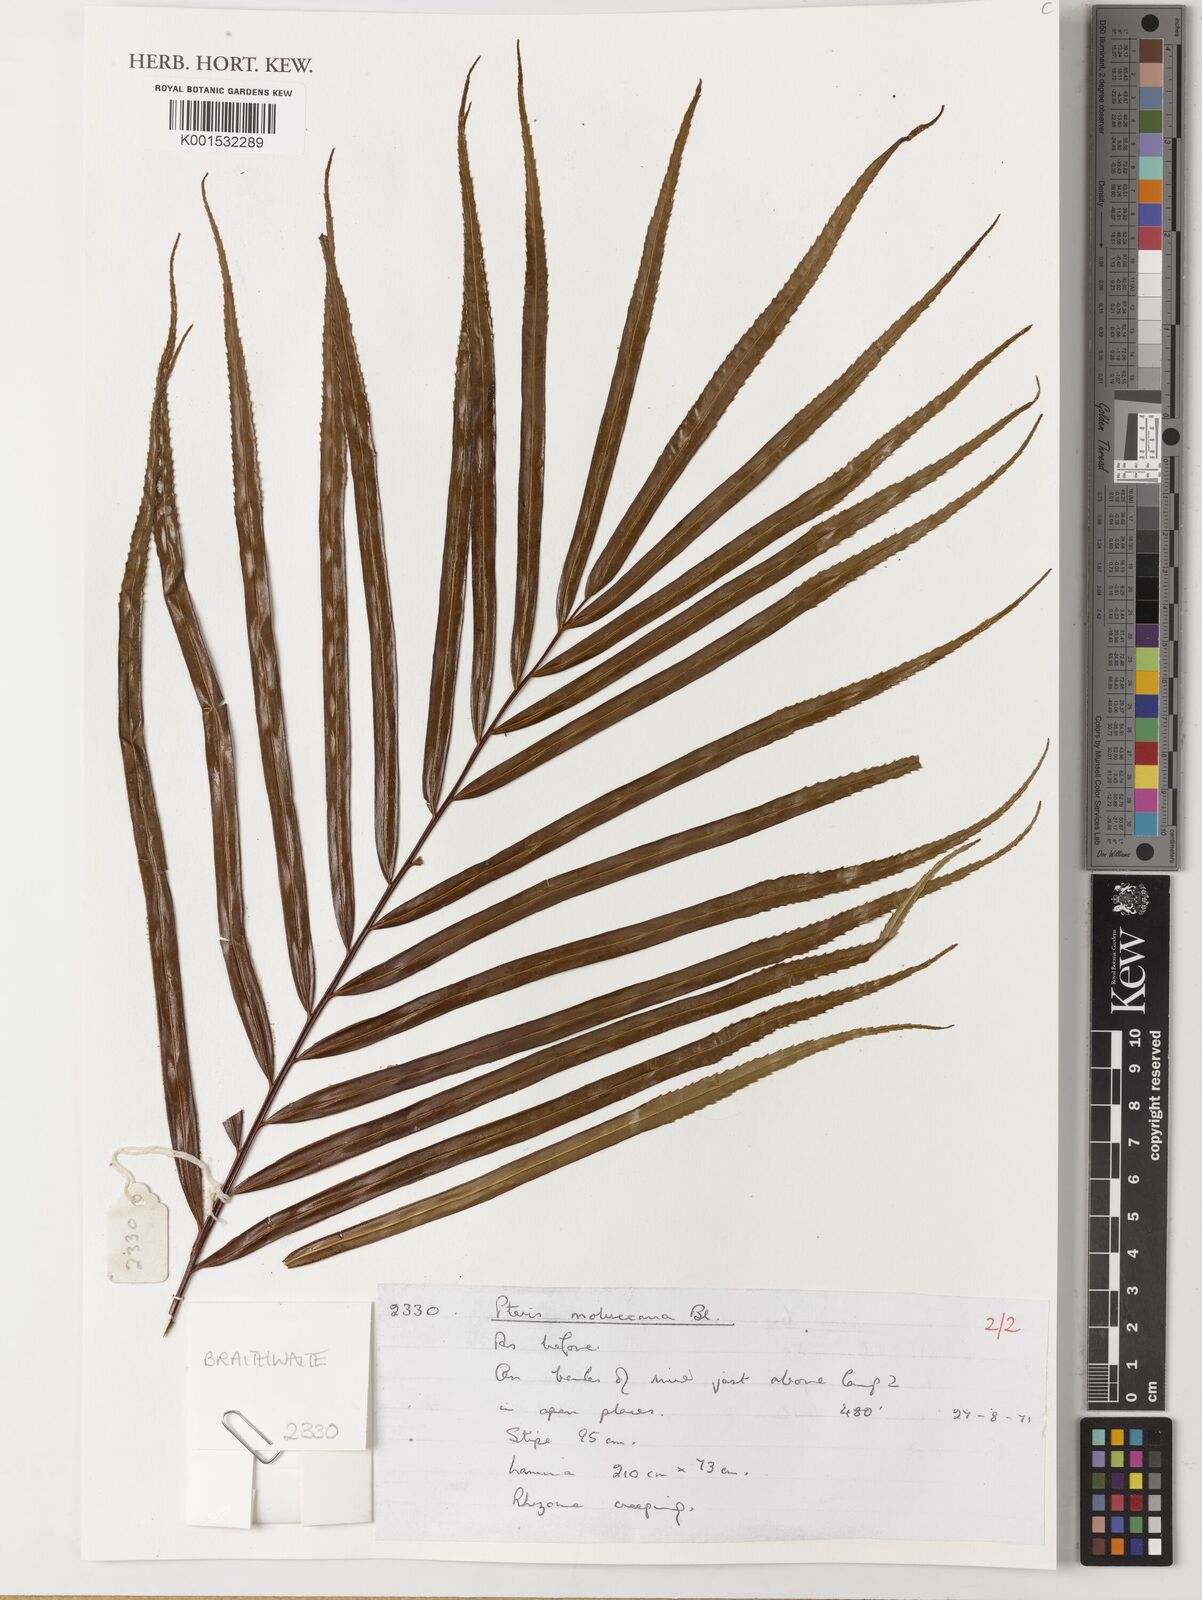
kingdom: Plantae
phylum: Tracheophyta
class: Polypodiopsida
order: Polypodiales
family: Pteridaceae
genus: Pteris
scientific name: Pteris moluccana
